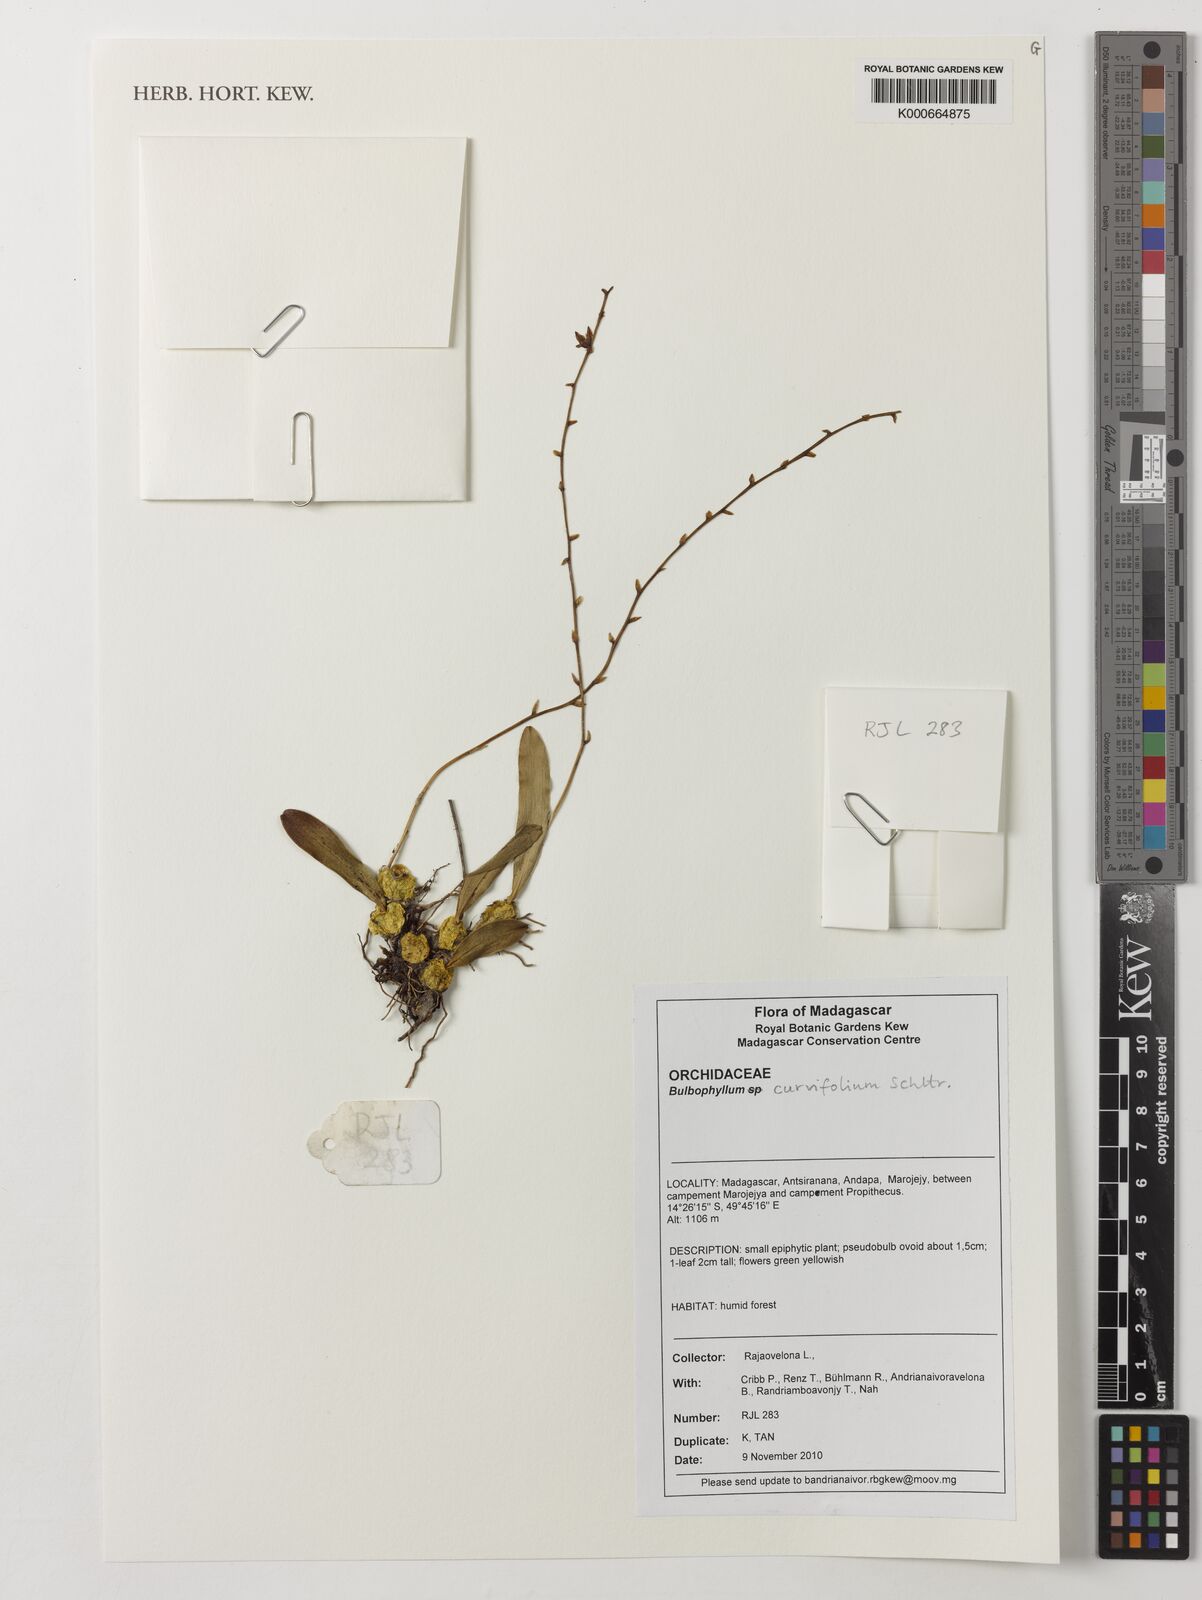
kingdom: Plantae
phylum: Tracheophyta
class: Liliopsida
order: Asparagales
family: Orchidaceae
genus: Bulbophyllum
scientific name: Bulbophyllum curvifolium
